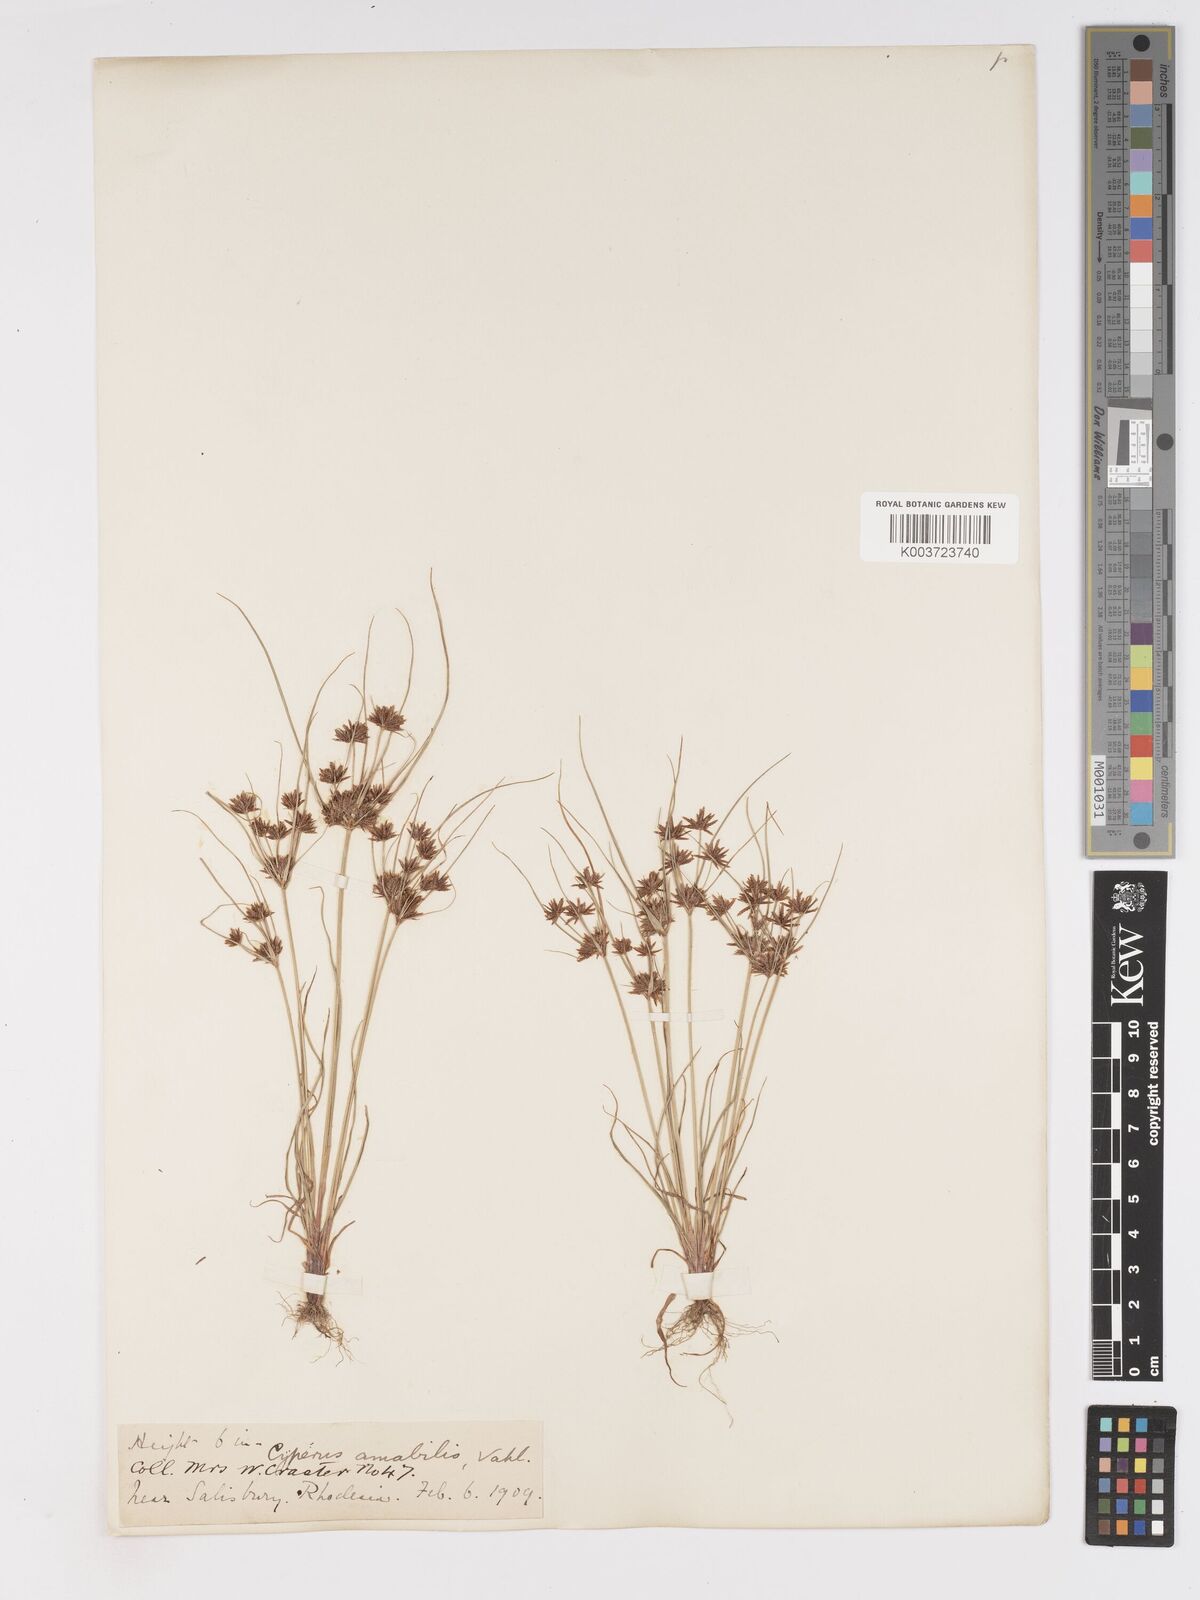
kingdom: Plantae
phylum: Tracheophyta
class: Liliopsida
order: Poales
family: Cyperaceae
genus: Cyperus
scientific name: Cyperus amabilis
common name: Foothill flat sedge
